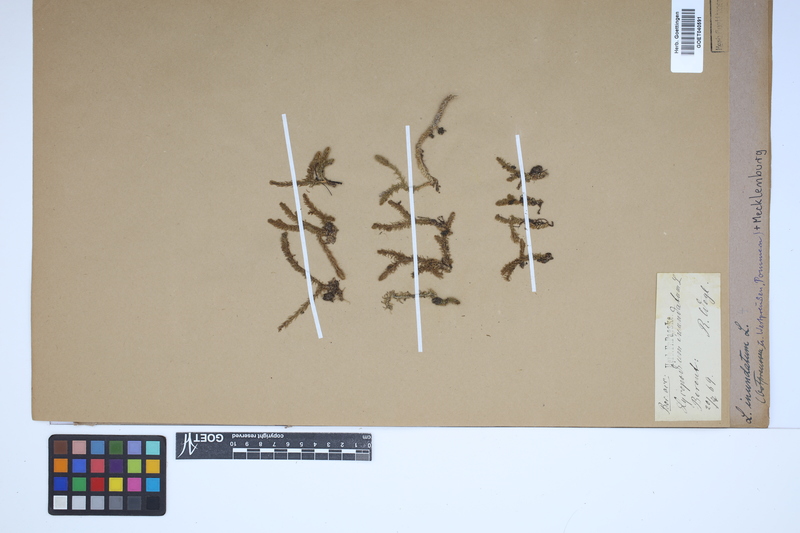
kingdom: Plantae
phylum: Tracheophyta
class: Lycopodiopsida
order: Lycopodiales
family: Lycopodiaceae
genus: Lycopodiella
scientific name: Lycopodiella inundata
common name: Marsh clubmoss
